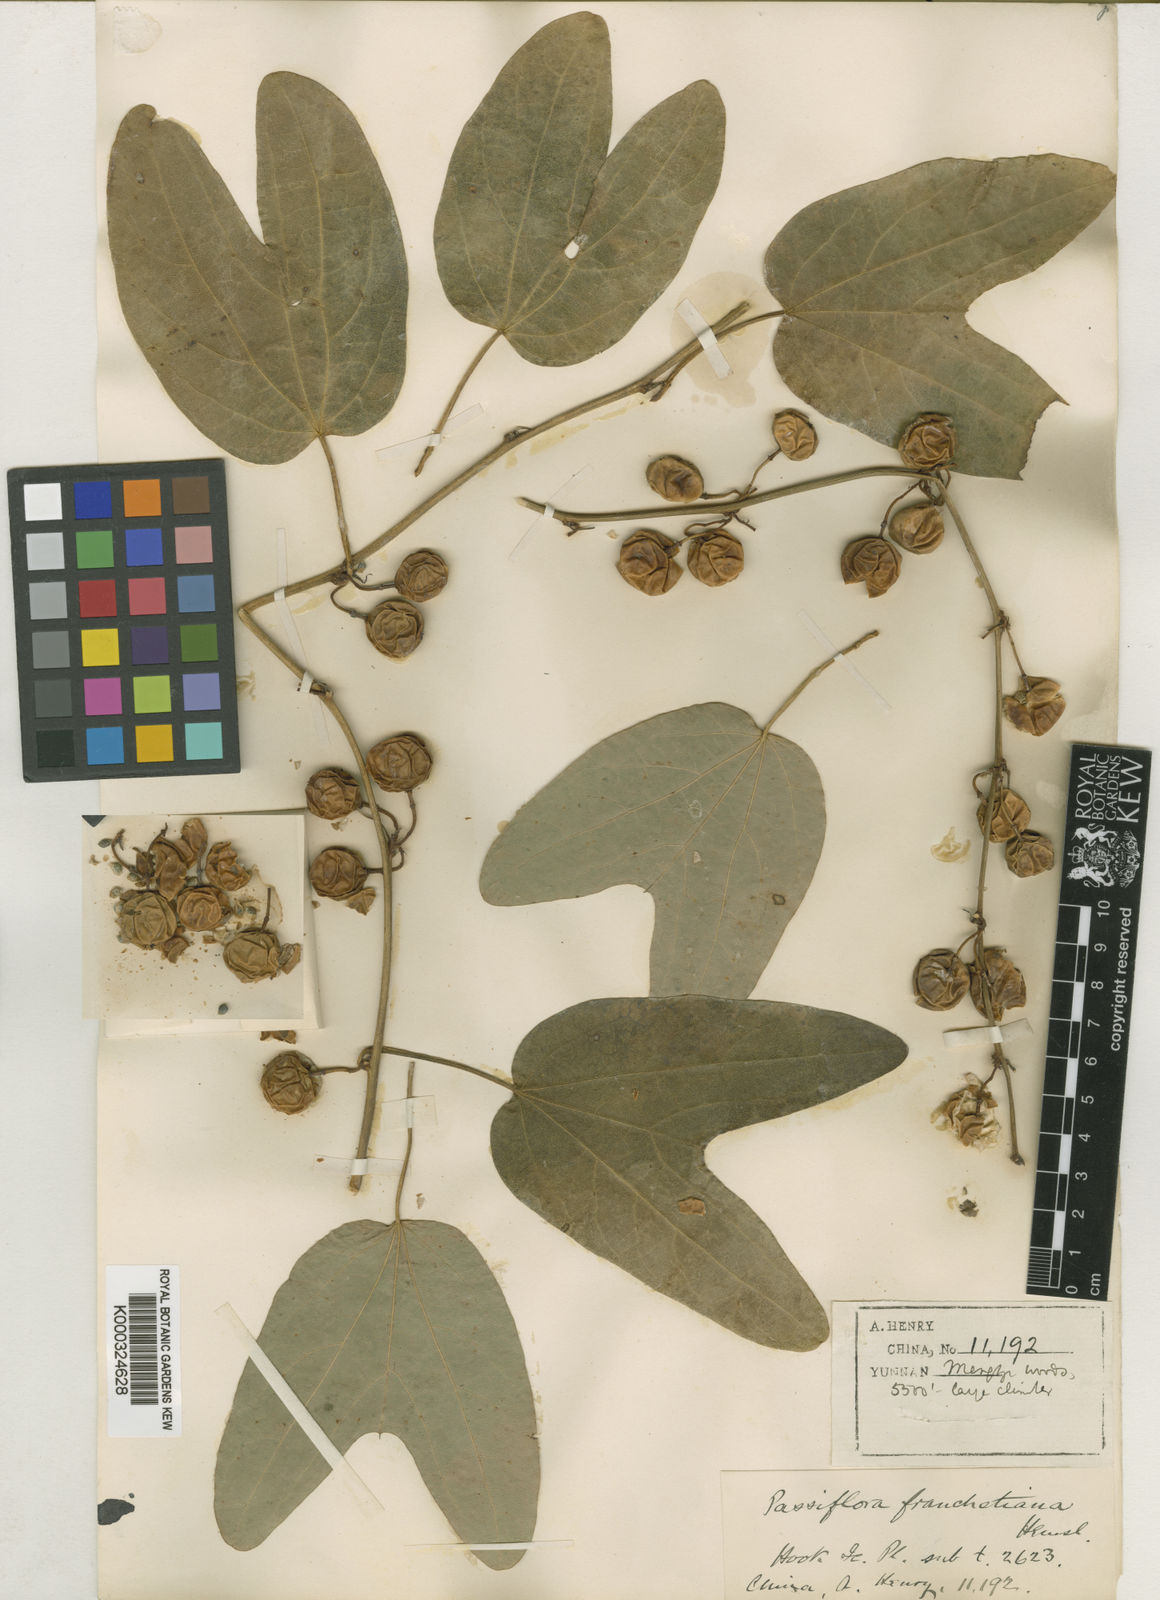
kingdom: Plantae
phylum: Tracheophyta
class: Magnoliopsida
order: Malpighiales
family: Passifloraceae
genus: Passiflora
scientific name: Passiflora cupiformis
